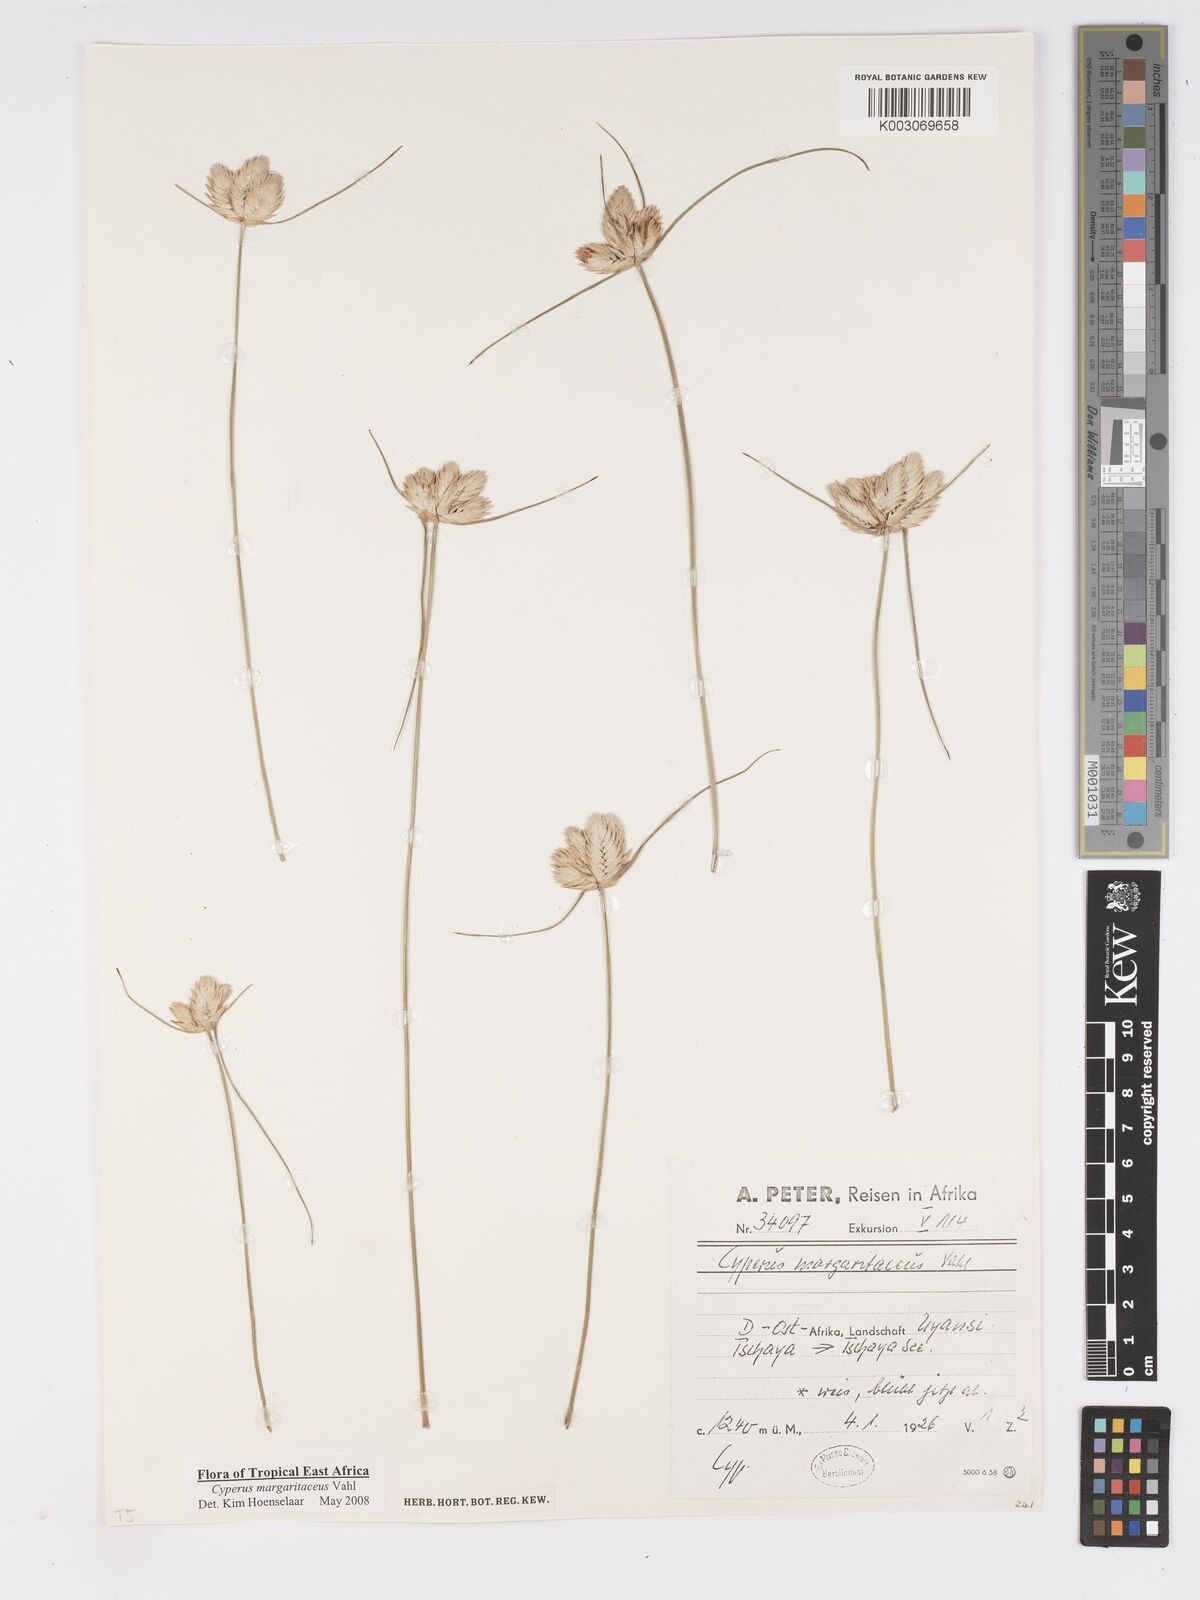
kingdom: Plantae
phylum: Tracheophyta
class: Liliopsida
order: Poales
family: Cyperaceae
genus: Cyperus
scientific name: Cyperus margaritaceus
